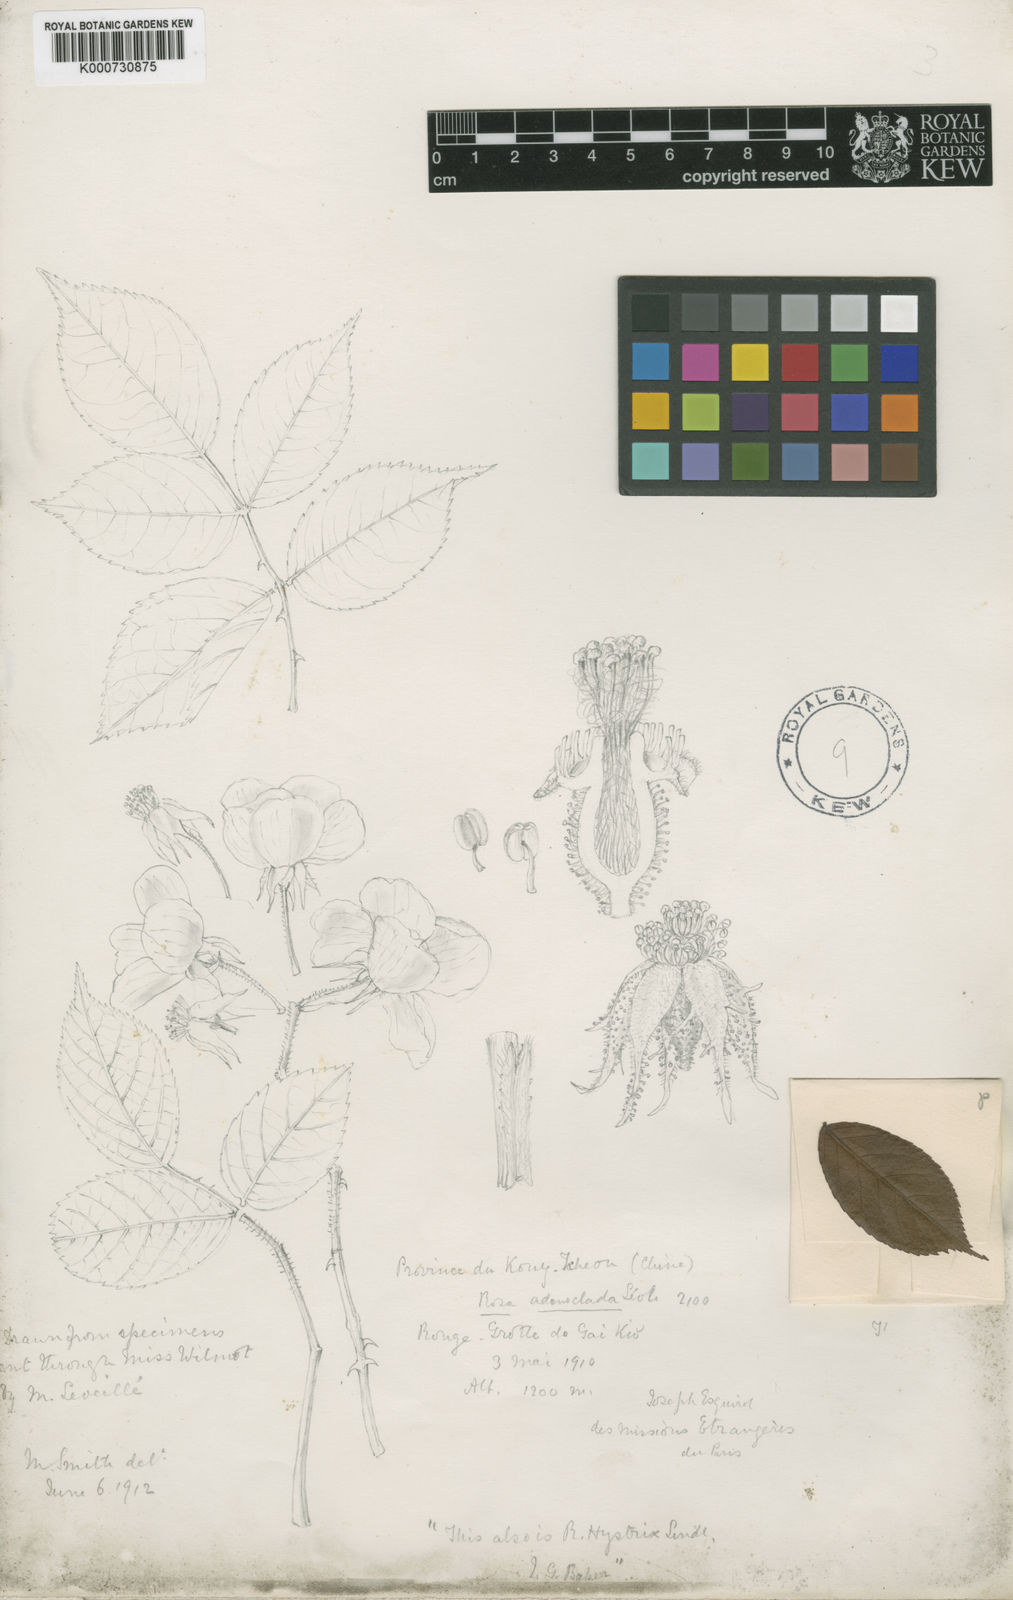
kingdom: Plantae
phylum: Tracheophyta
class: Magnoliopsida
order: Rosales
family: Rosaceae
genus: Rosa
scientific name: Rosa laevigata
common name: Cherokee rose
